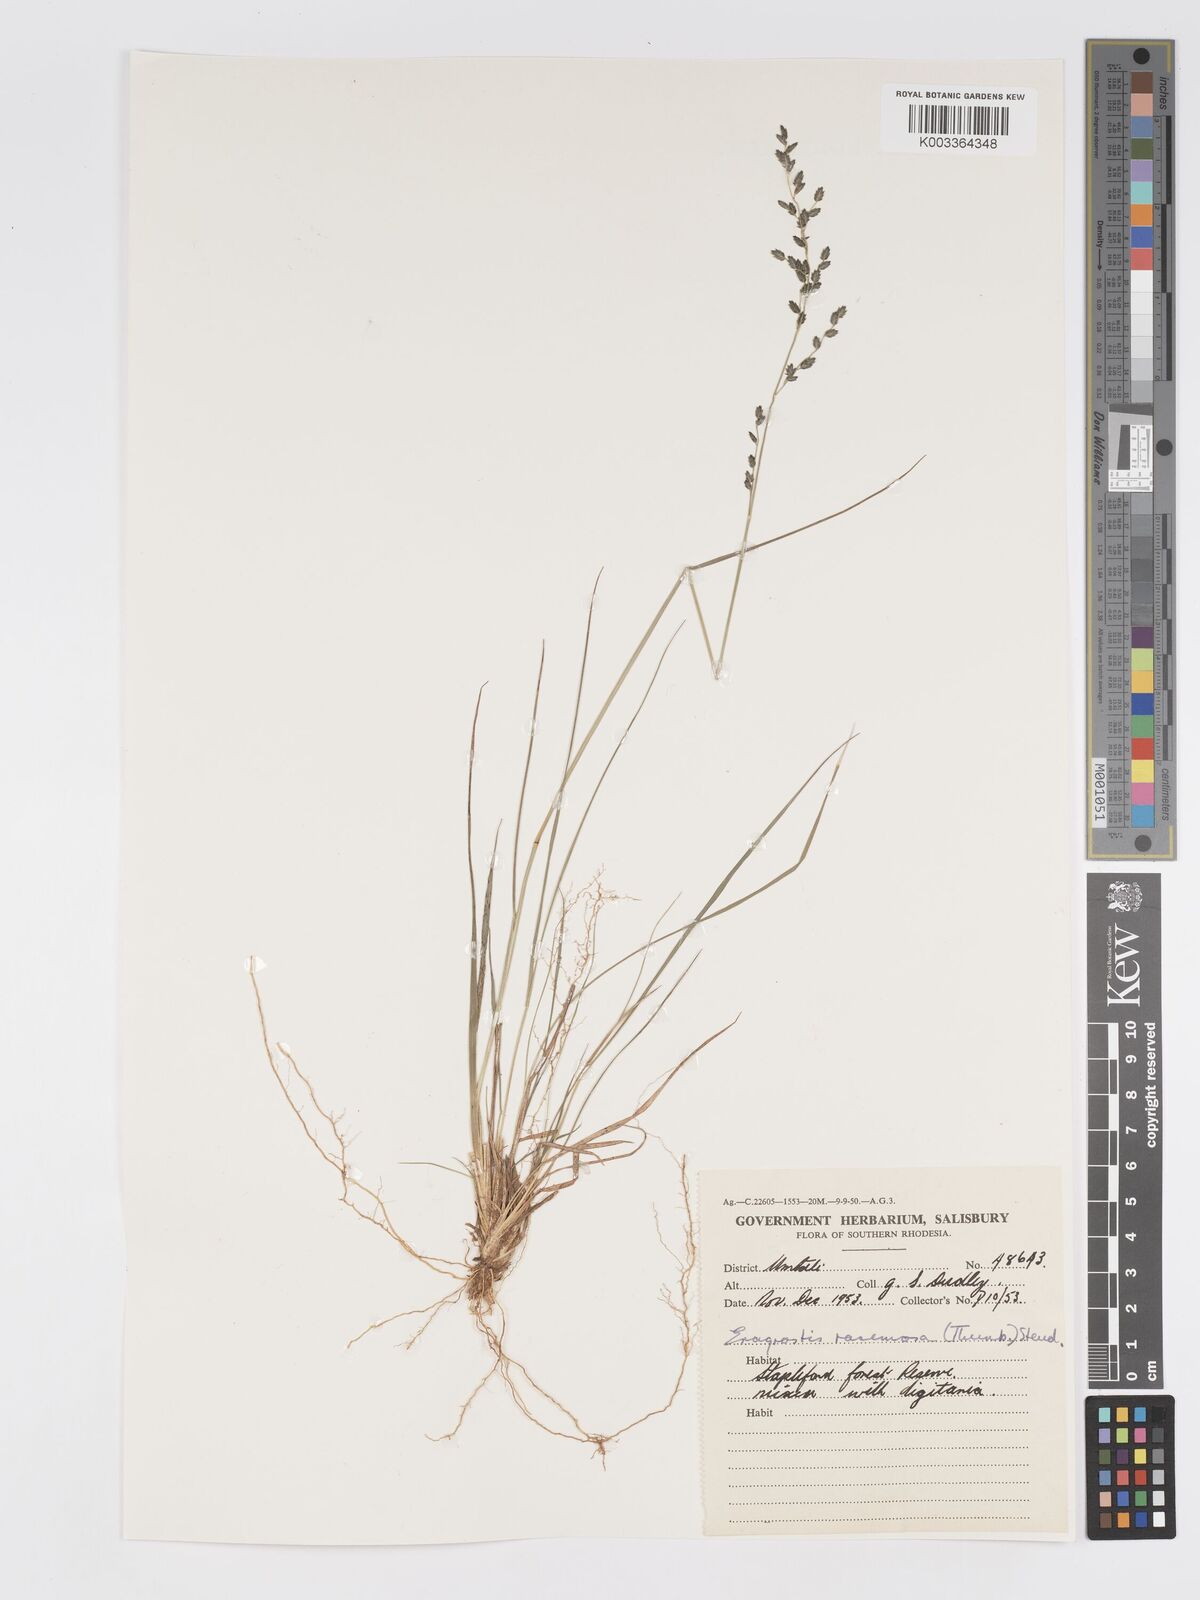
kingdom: Plantae
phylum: Tracheophyta
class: Liliopsida
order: Poales
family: Poaceae
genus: Eragrostis
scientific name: Eragrostis racemosa
